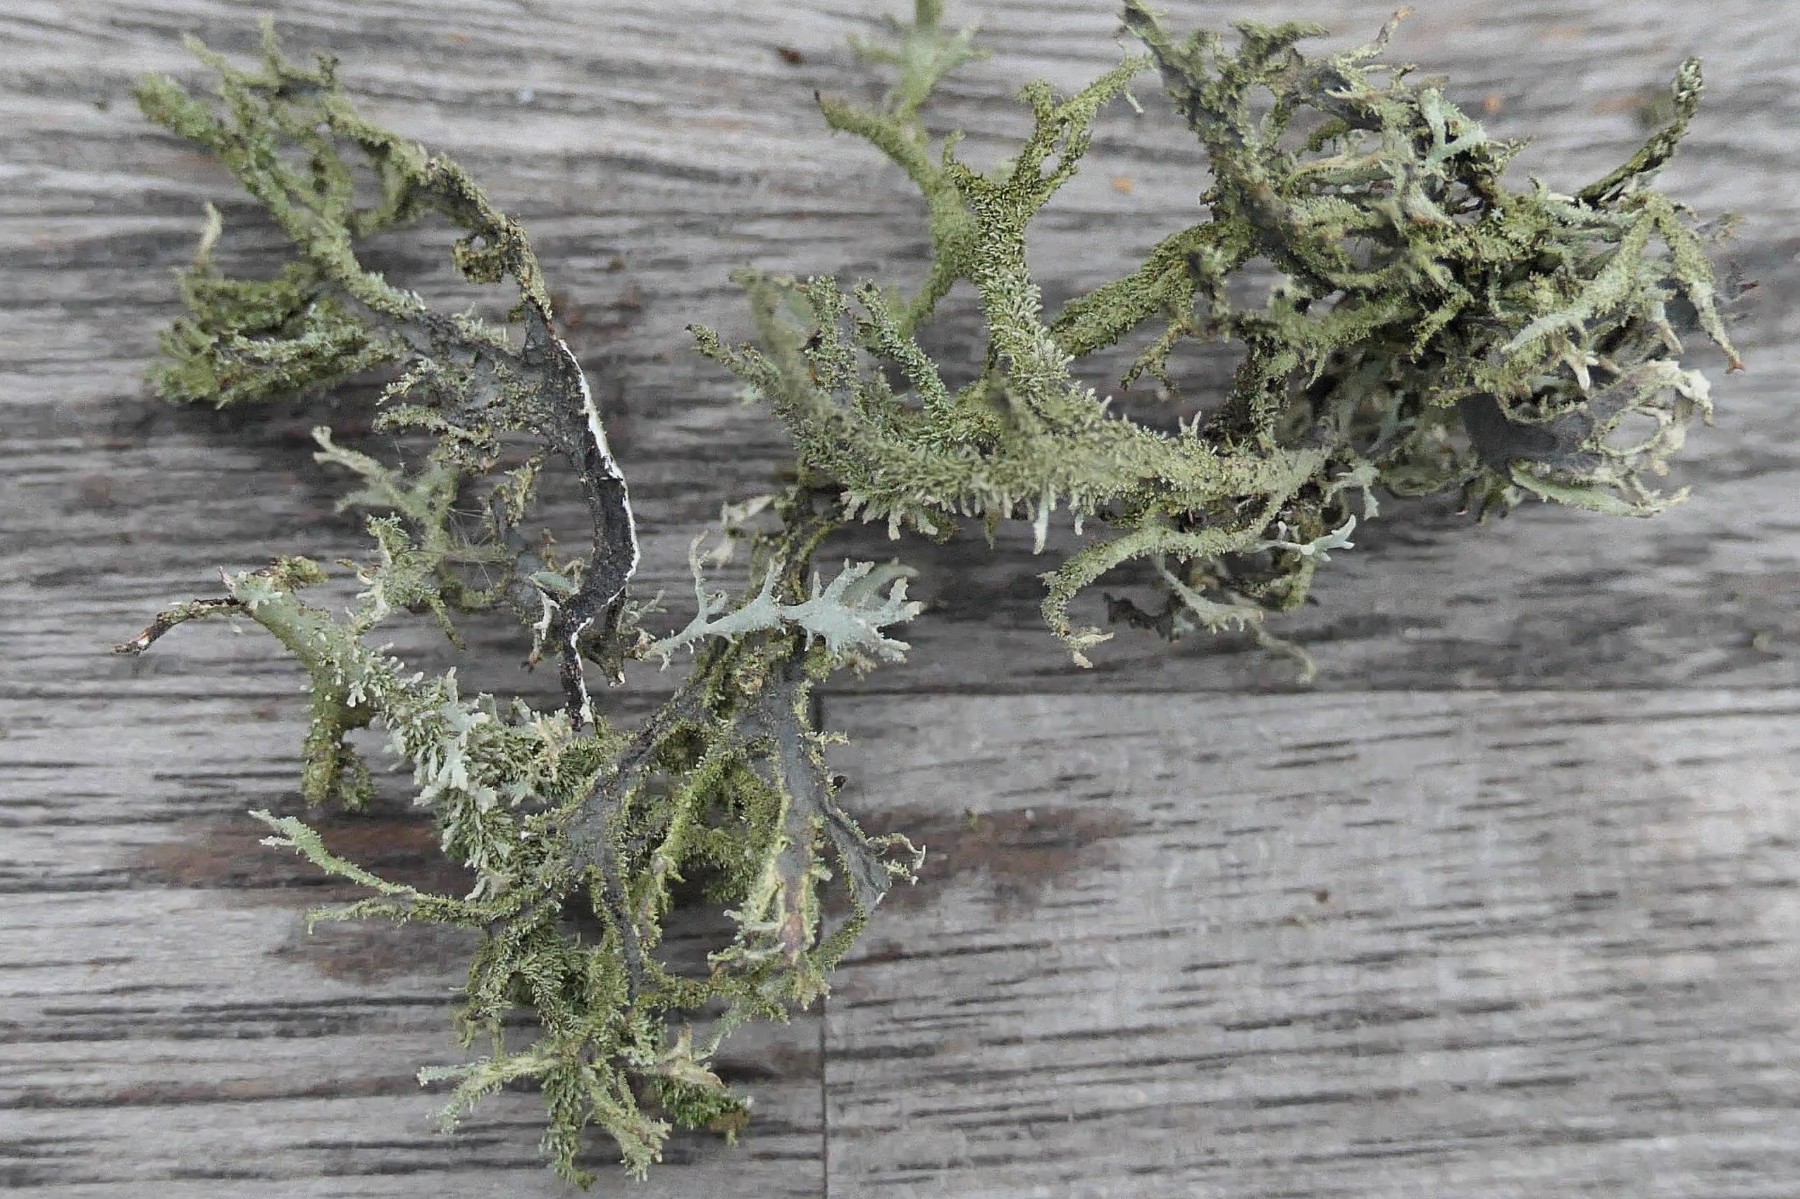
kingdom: Fungi
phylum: Ascomycota
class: Lecanoromycetes
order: Lecanorales
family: Parmeliaceae
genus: Pseudevernia
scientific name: Pseudevernia furfuracea
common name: grå fyrrelav
